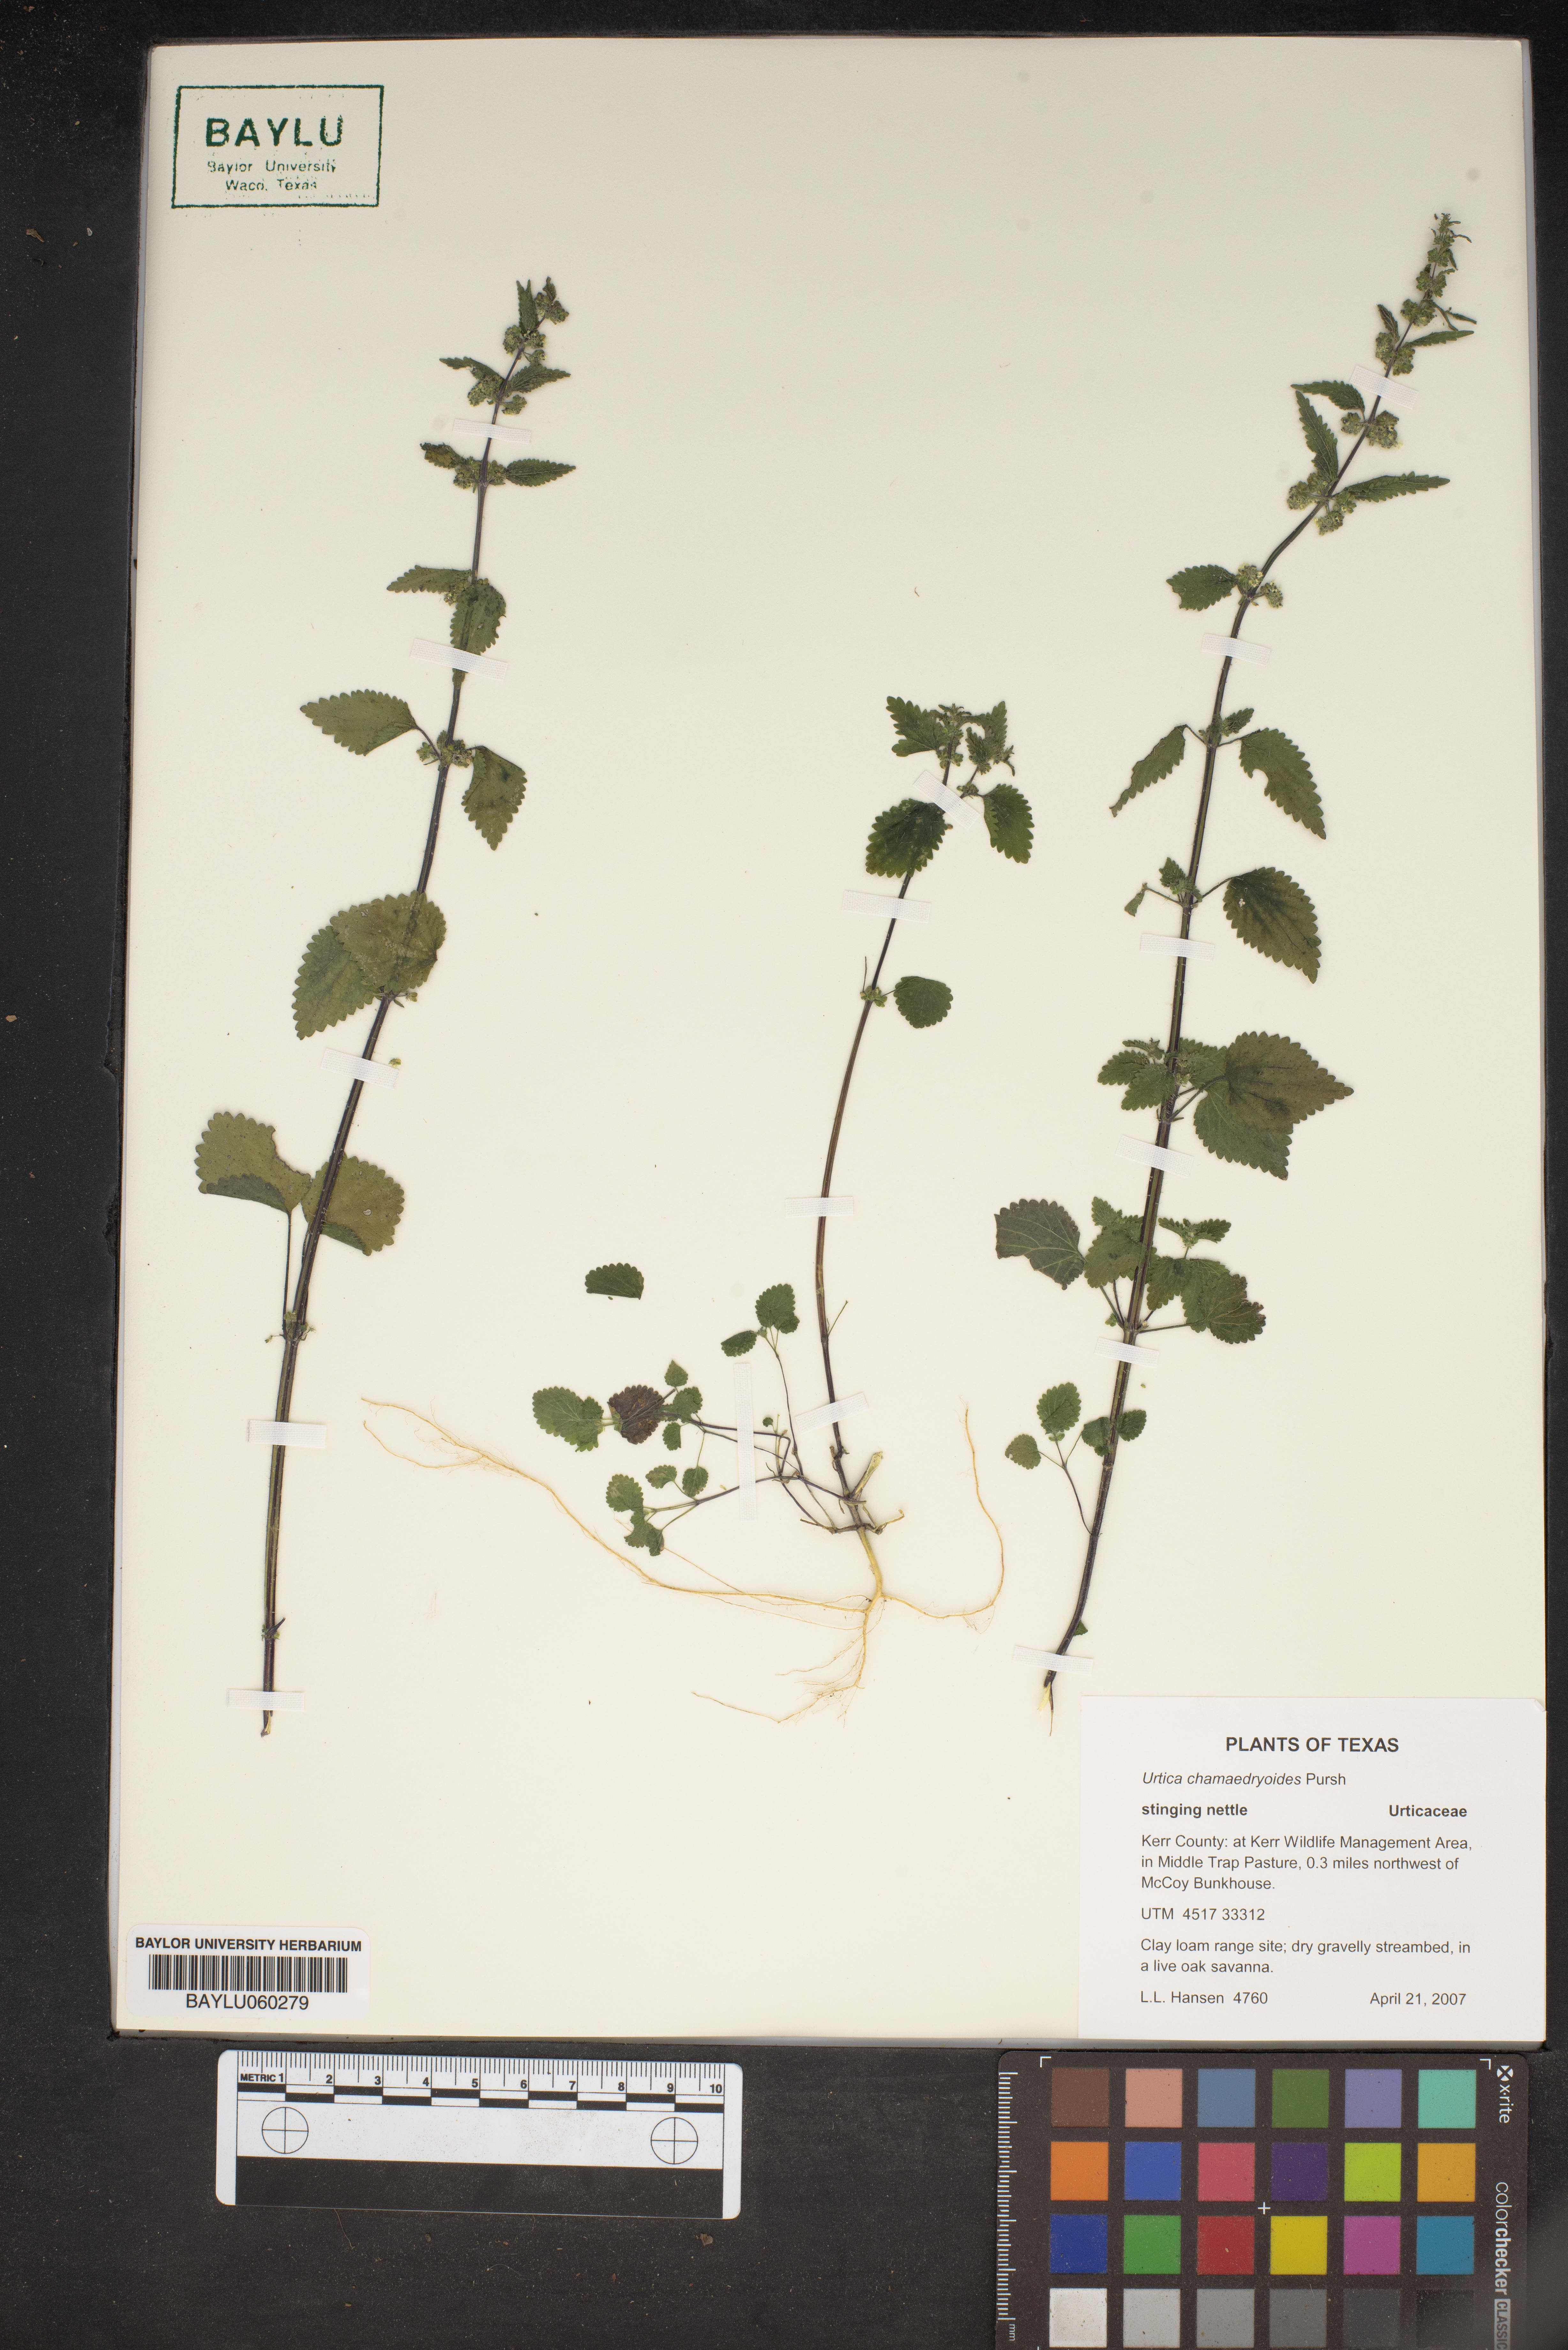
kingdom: Plantae
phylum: Tracheophyta
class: Magnoliopsida
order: Rosales
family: Urticaceae
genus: Urtica
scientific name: Urtica chamaedryoides
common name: Heart-leaf nettle
